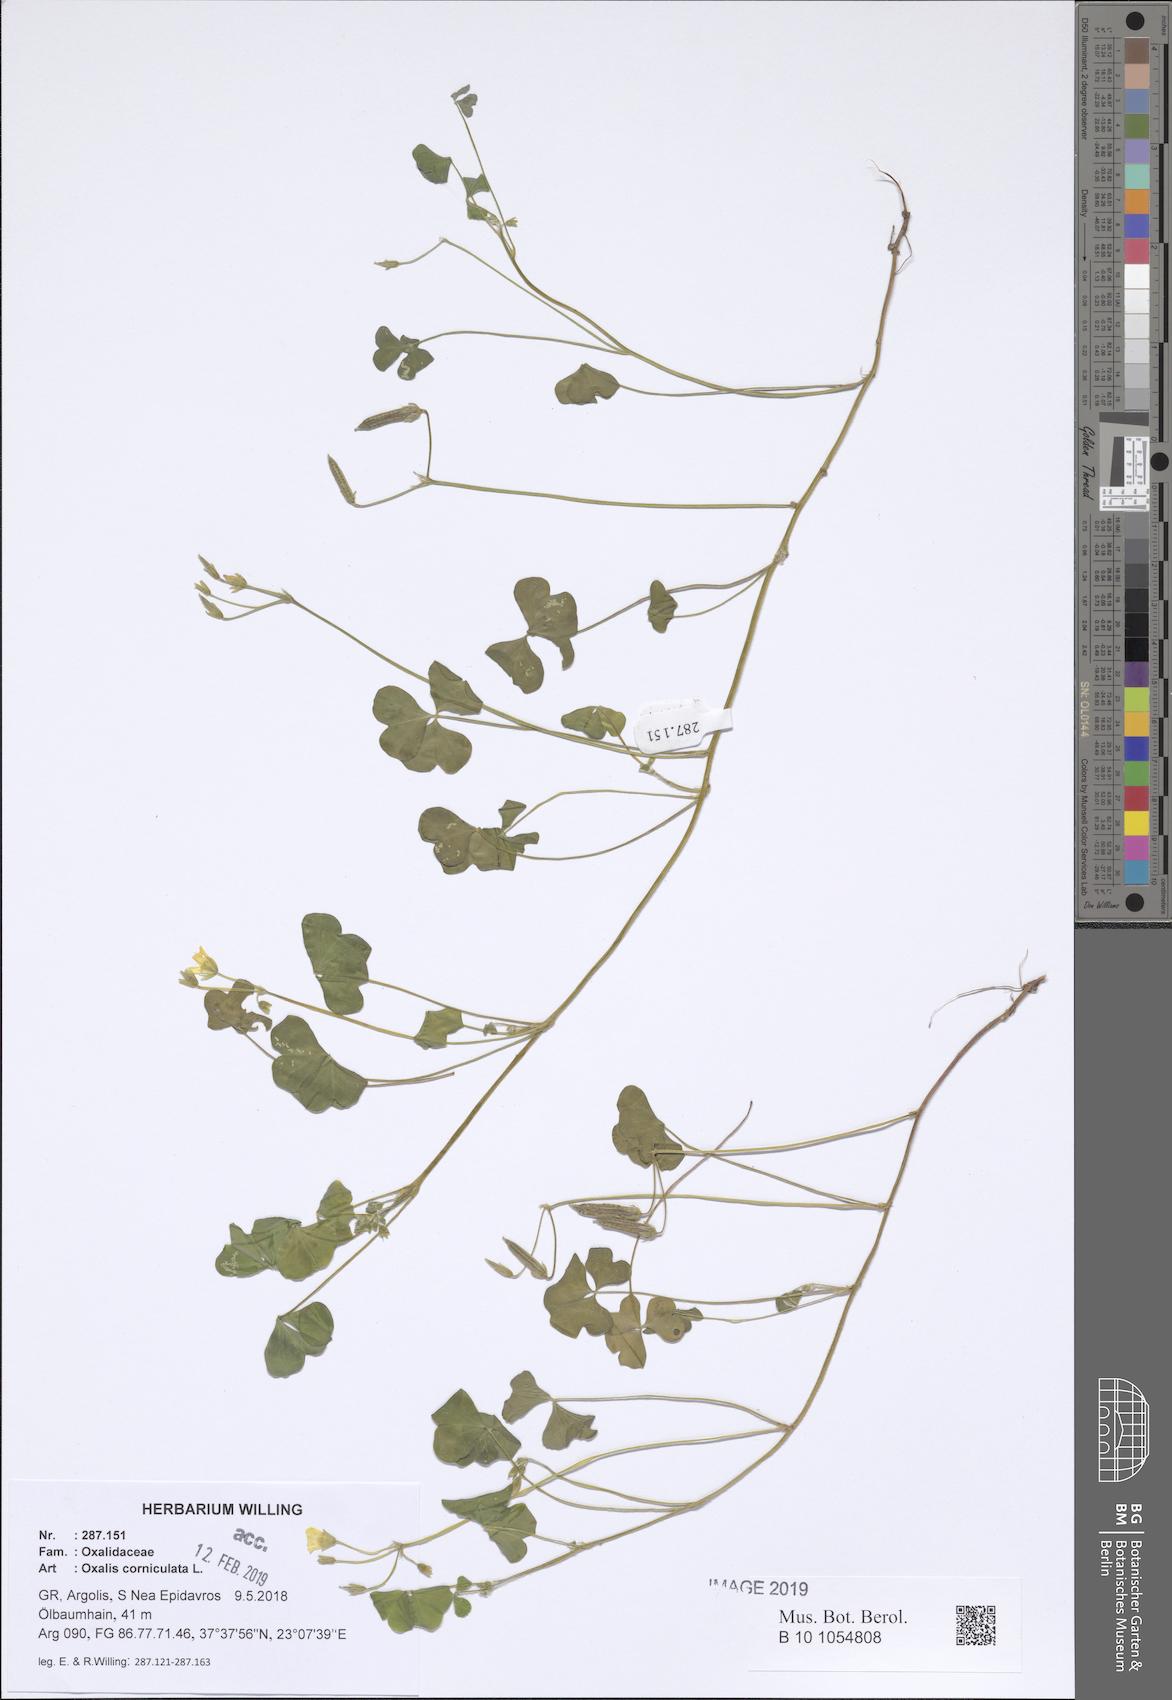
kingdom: Plantae
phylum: Tracheophyta
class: Magnoliopsida
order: Oxalidales
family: Oxalidaceae
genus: Oxalis
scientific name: Oxalis corniculata
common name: Procumbent yellow-sorrel
